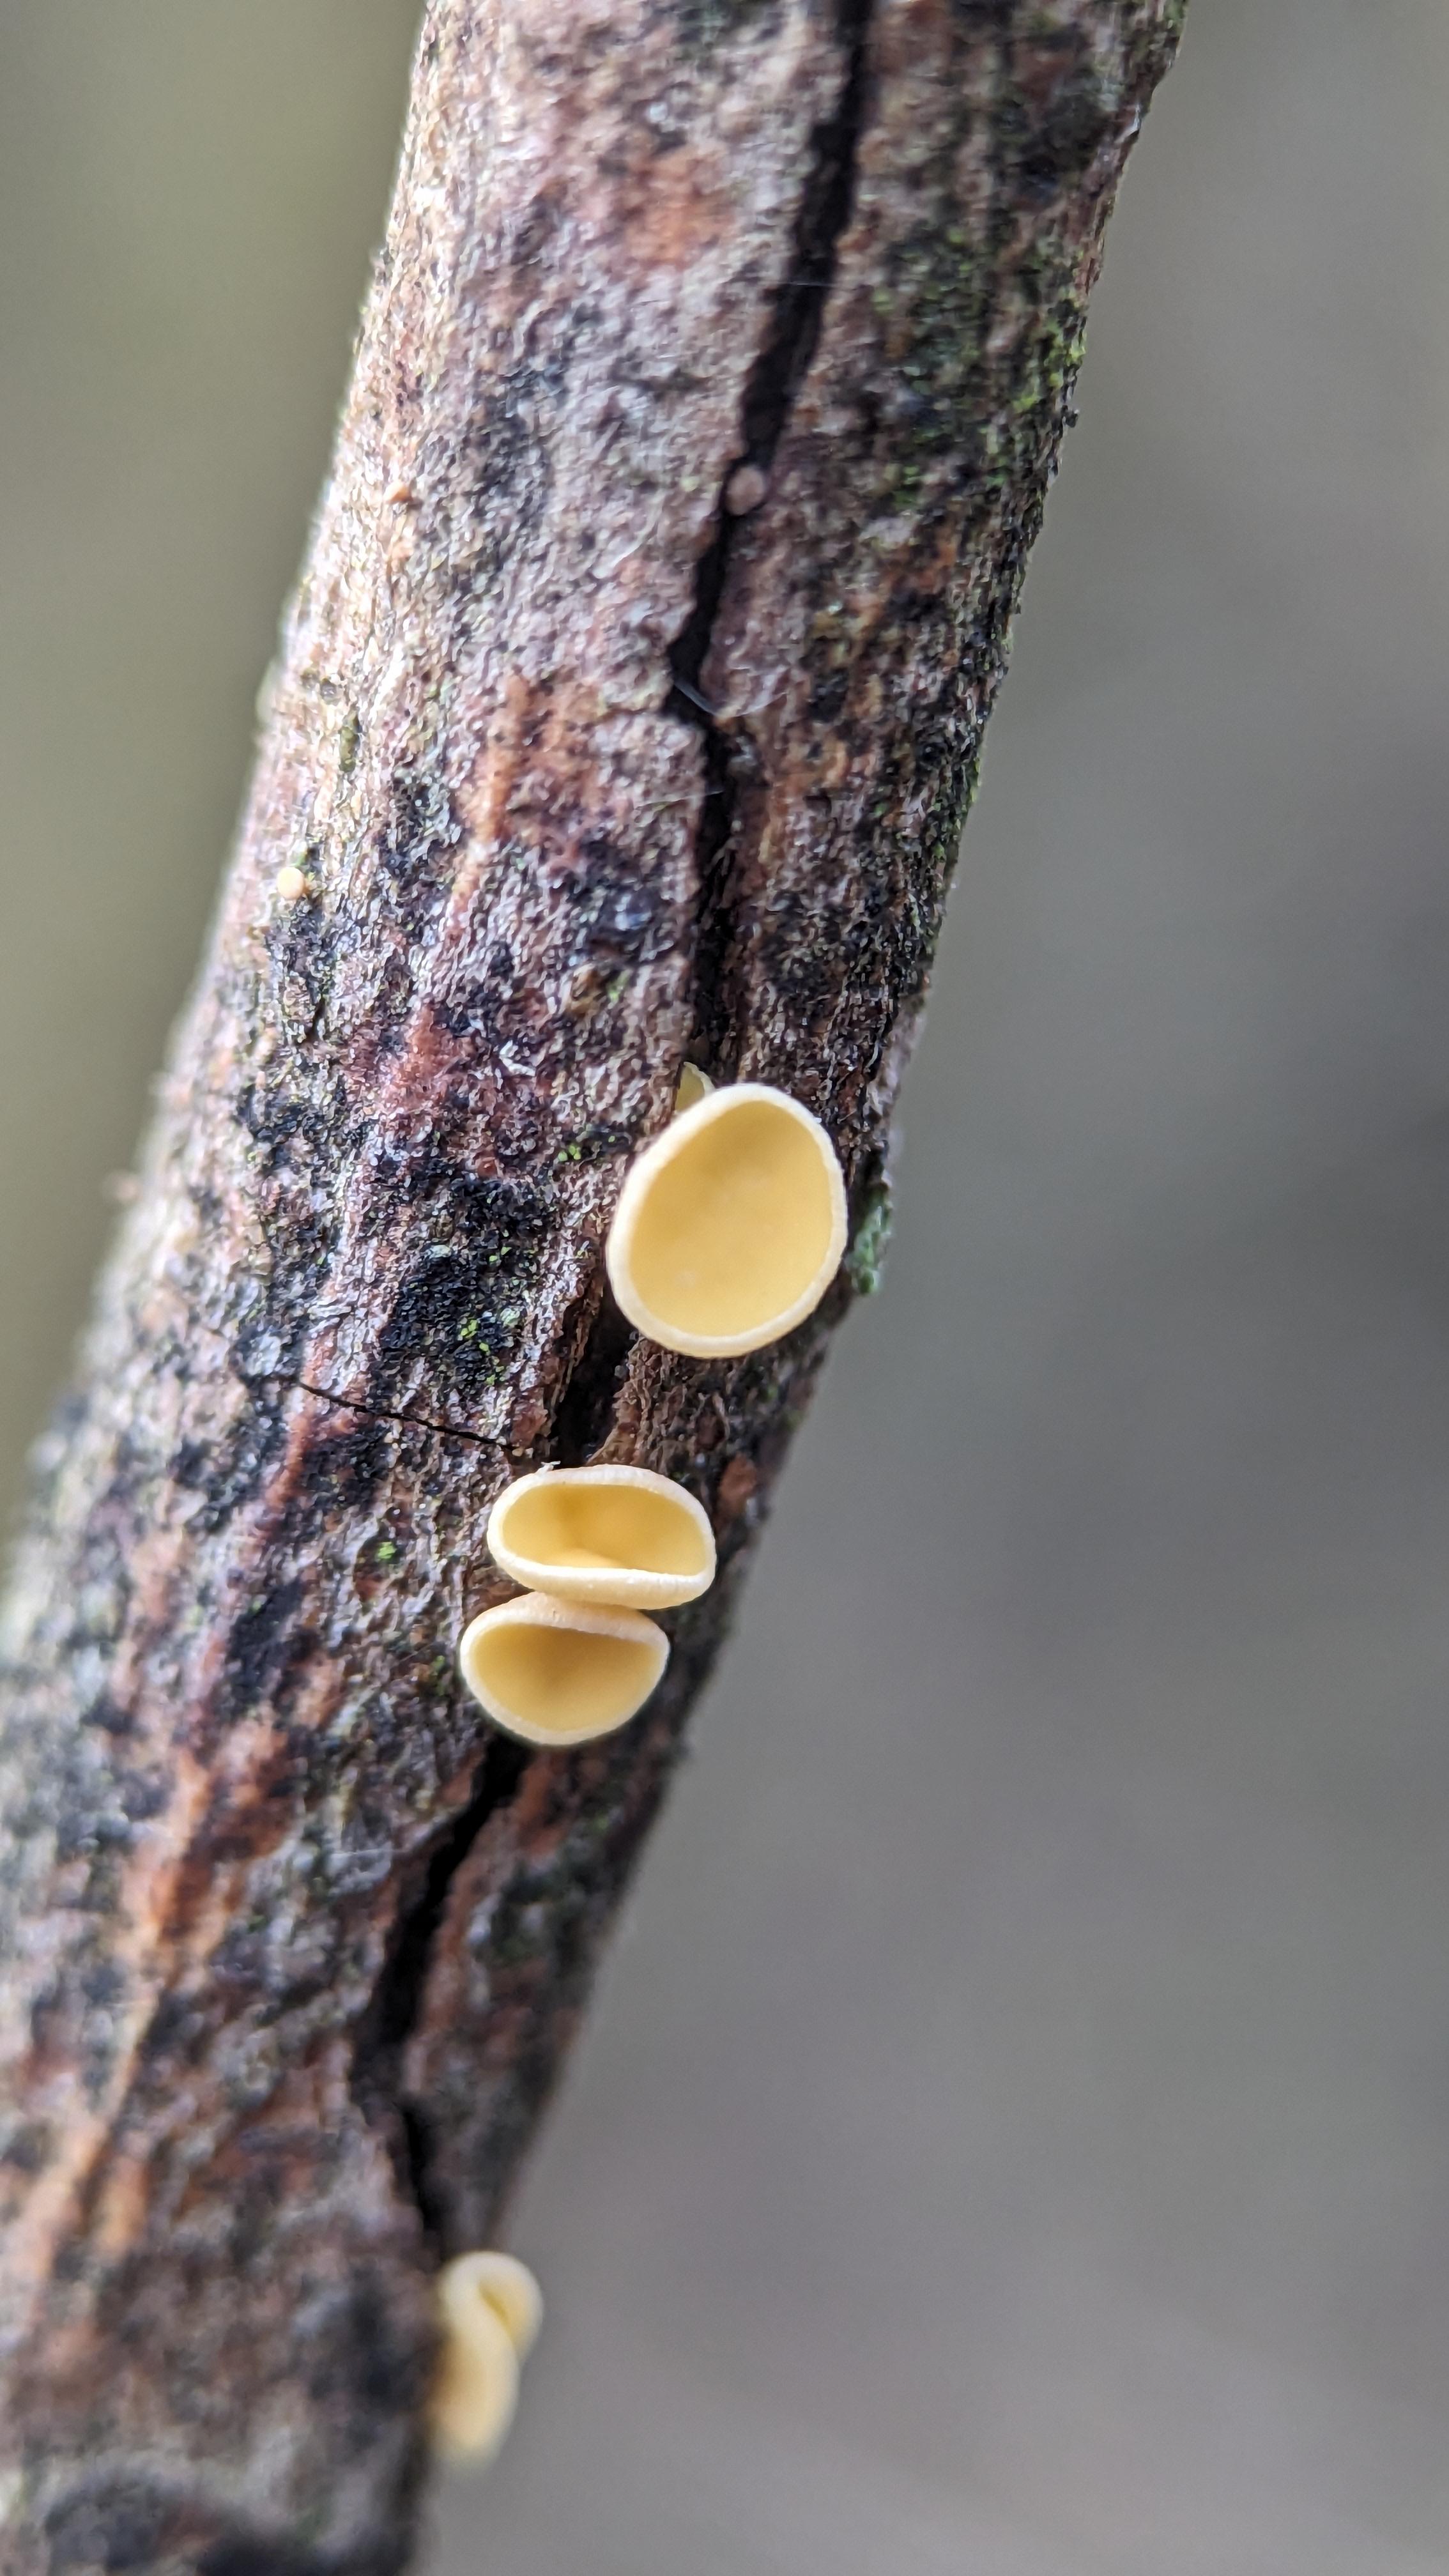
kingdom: Fungi
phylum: Ascomycota
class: Leotiomycetes
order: Helotiales
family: Helotiaceae
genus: Hymenoscyphus
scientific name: Hymenoscyphus
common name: stilkskive
